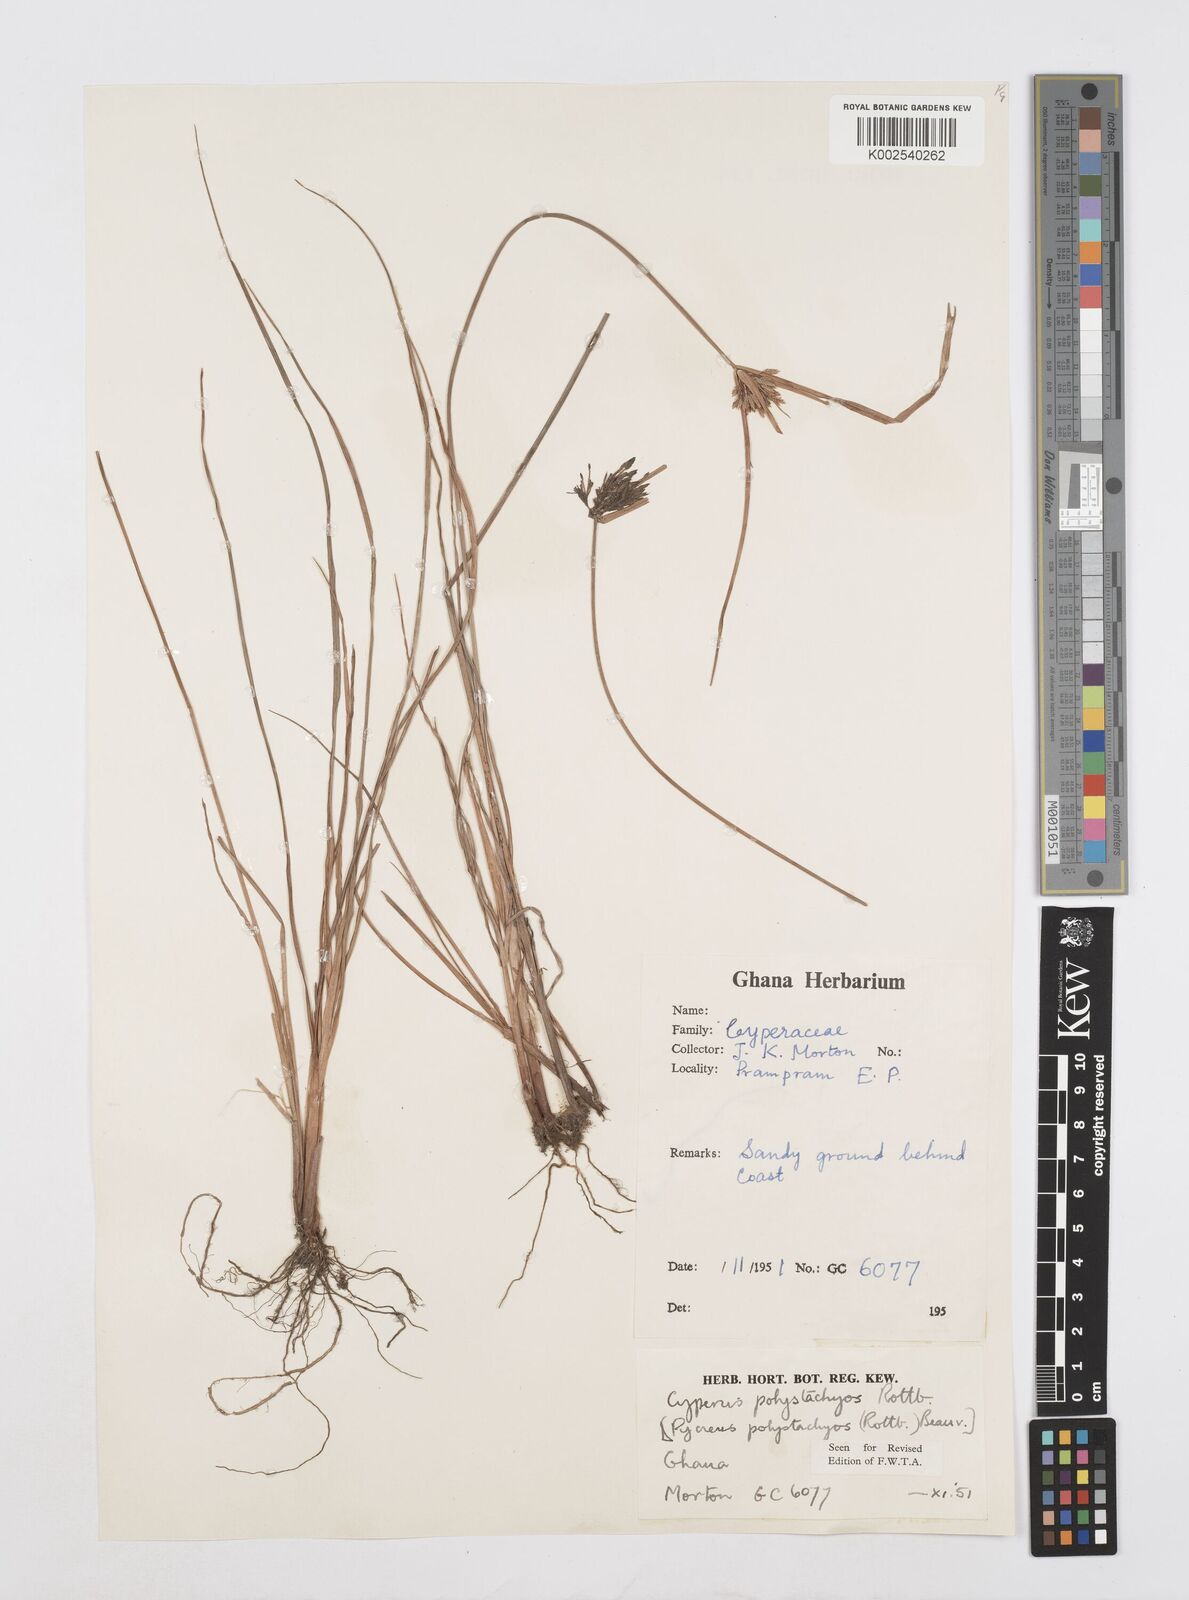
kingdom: Plantae
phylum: Tracheophyta
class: Liliopsida
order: Poales
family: Cyperaceae
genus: Cyperus
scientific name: Cyperus polystachyos
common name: Bunchy flat sedge
